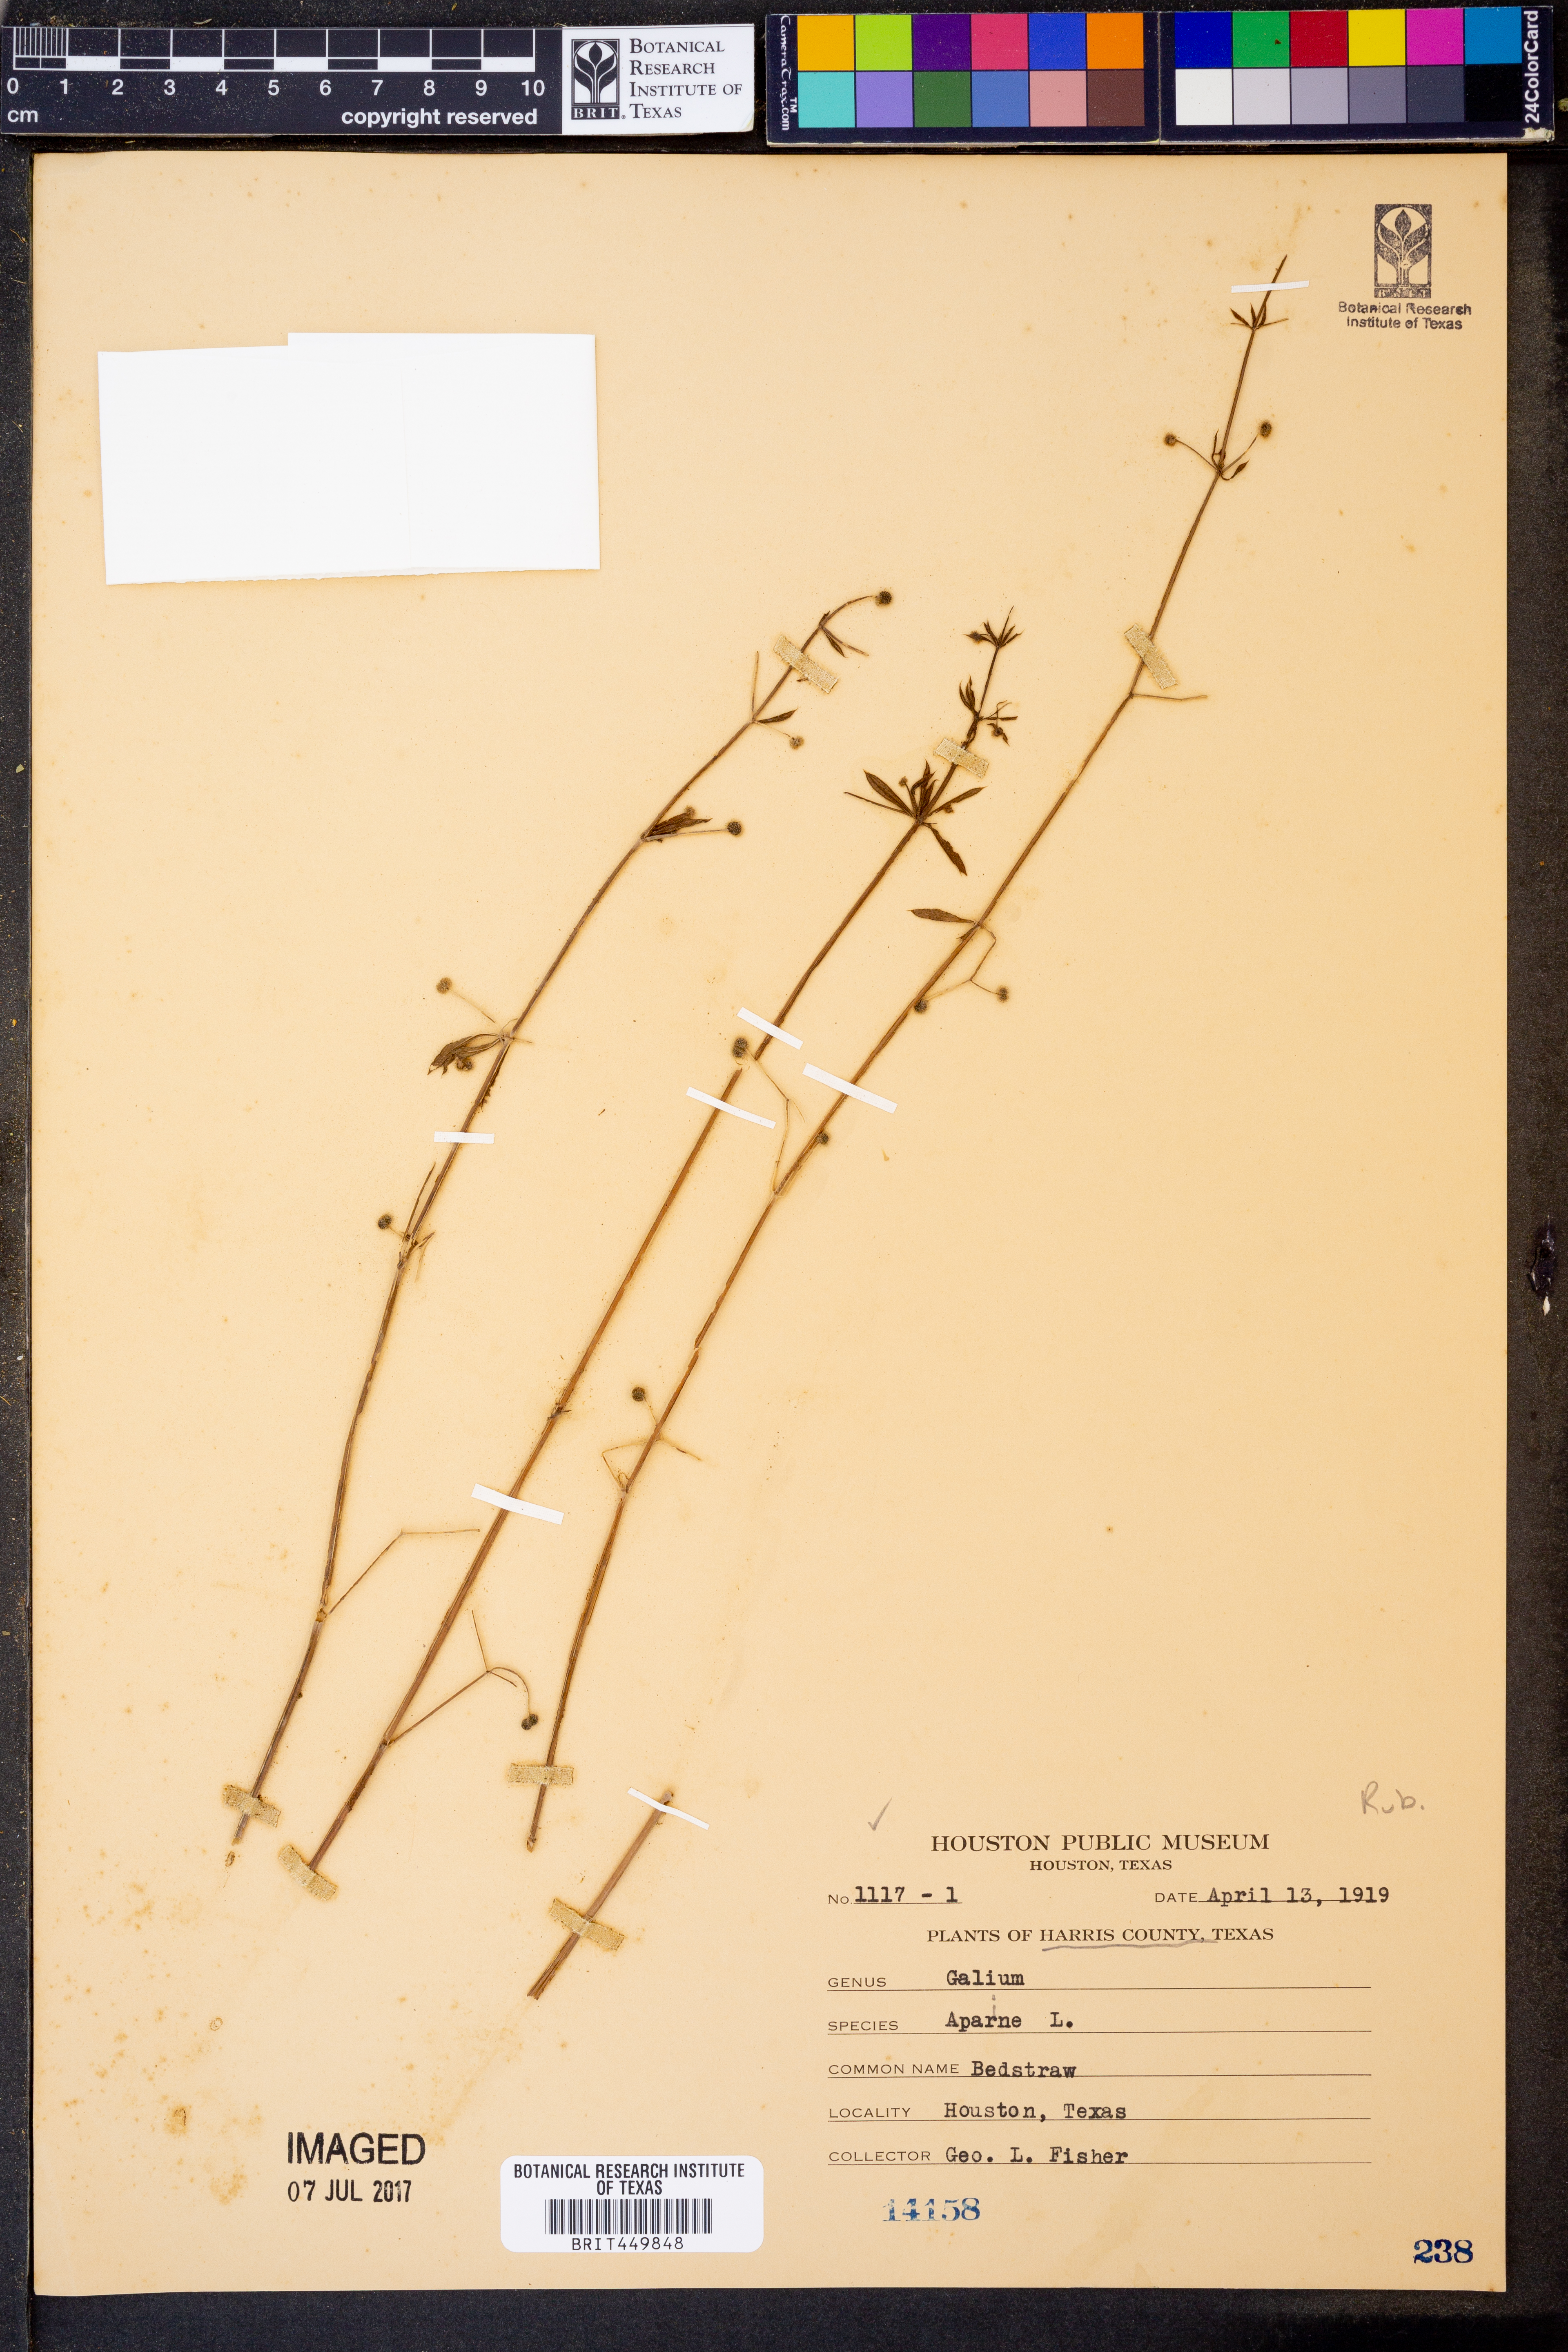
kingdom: Plantae
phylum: Tracheophyta
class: Magnoliopsida
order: Gentianales
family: Rubiaceae
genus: Galium
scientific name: Galium aparine
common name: Cleavers
